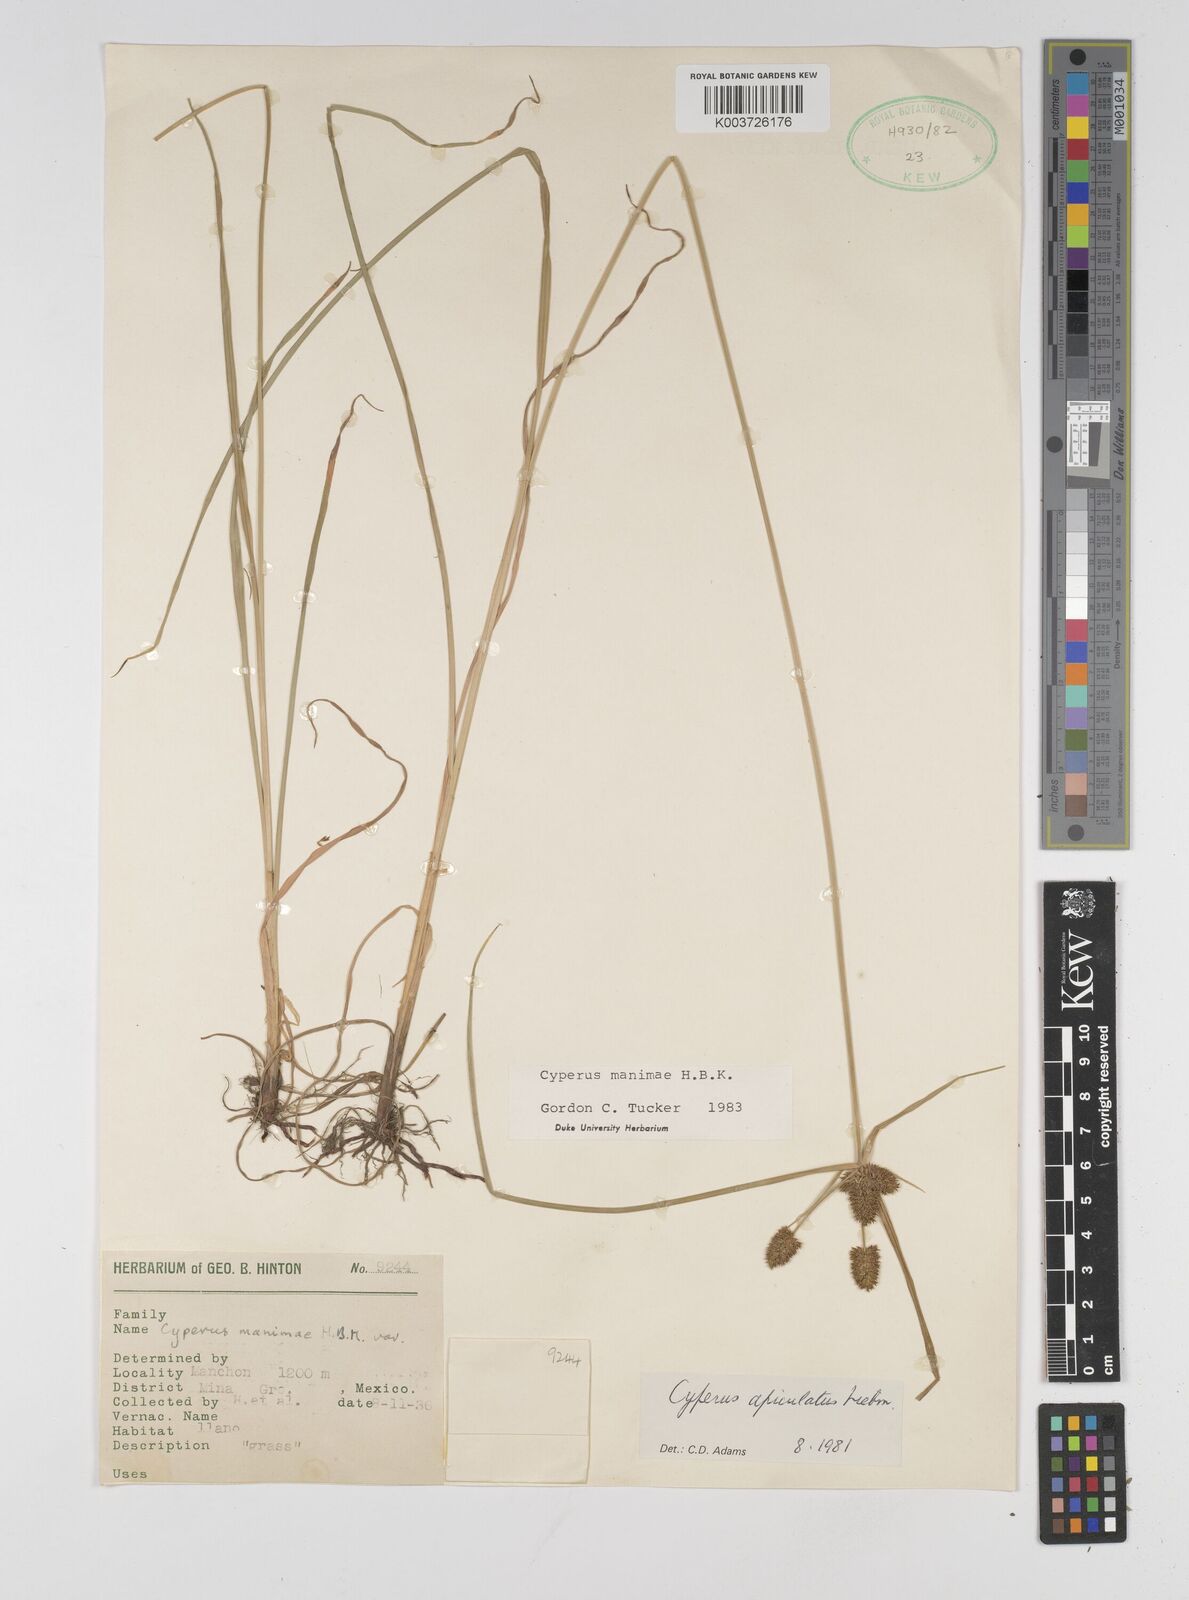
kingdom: Plantae
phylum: Tracheophyta
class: Liliopsida
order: Poales
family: Cyperaceae
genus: Cyperus
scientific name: Cyperus manimae
